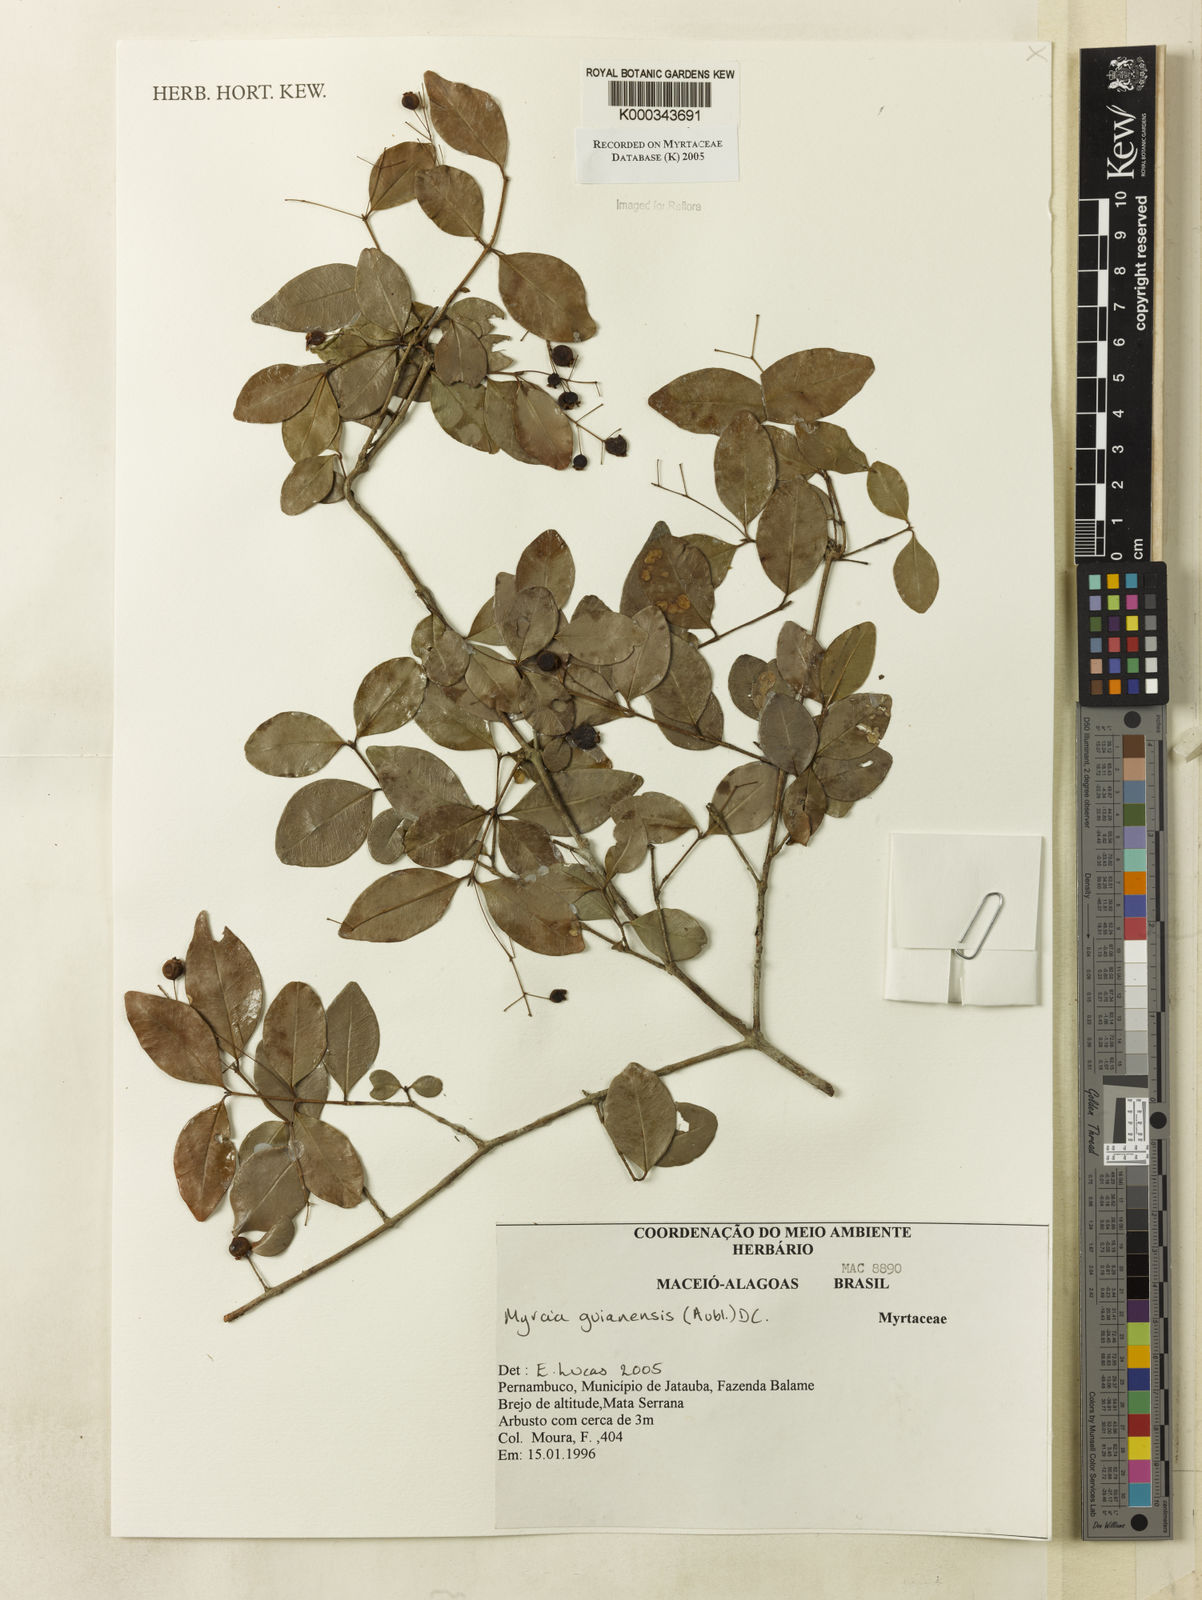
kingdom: Plantae
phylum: Tracheophyta
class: Magnoliopsida
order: Myrtales
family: Myrtaceae
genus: Myrcia
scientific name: Myrcia guianensis
